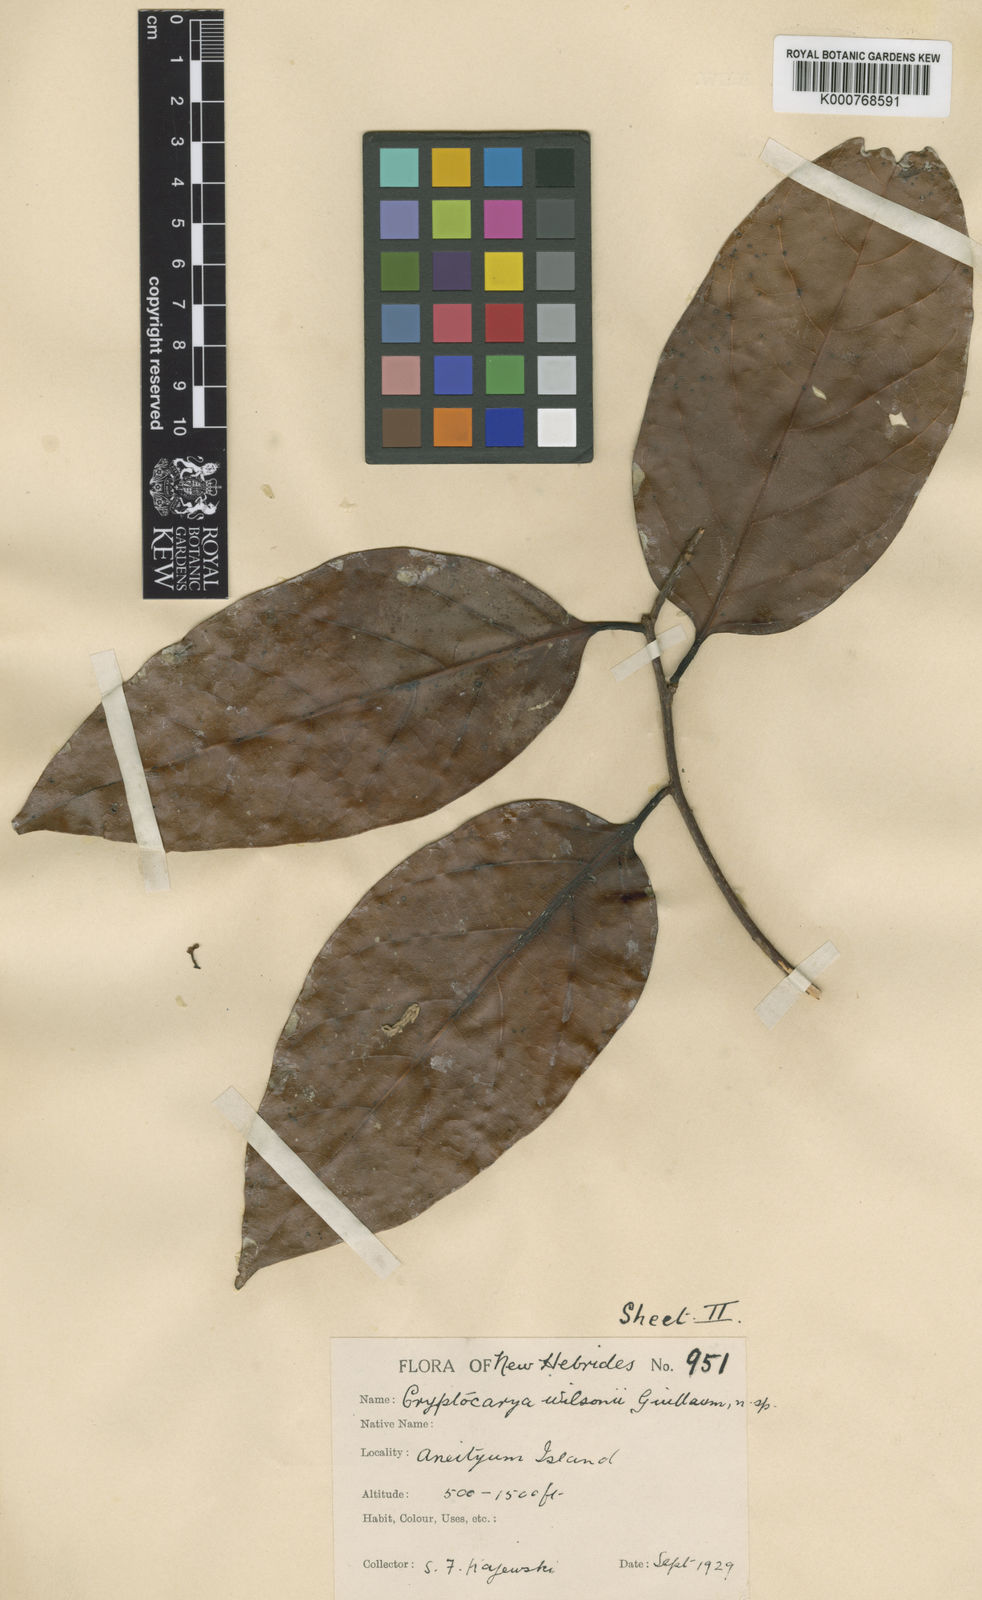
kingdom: Plantae
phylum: Tracheophyta
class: Magnoliopsida
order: Laurales
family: Lauraceae
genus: Cryptocarya
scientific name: Cryptocarya wilsonii
